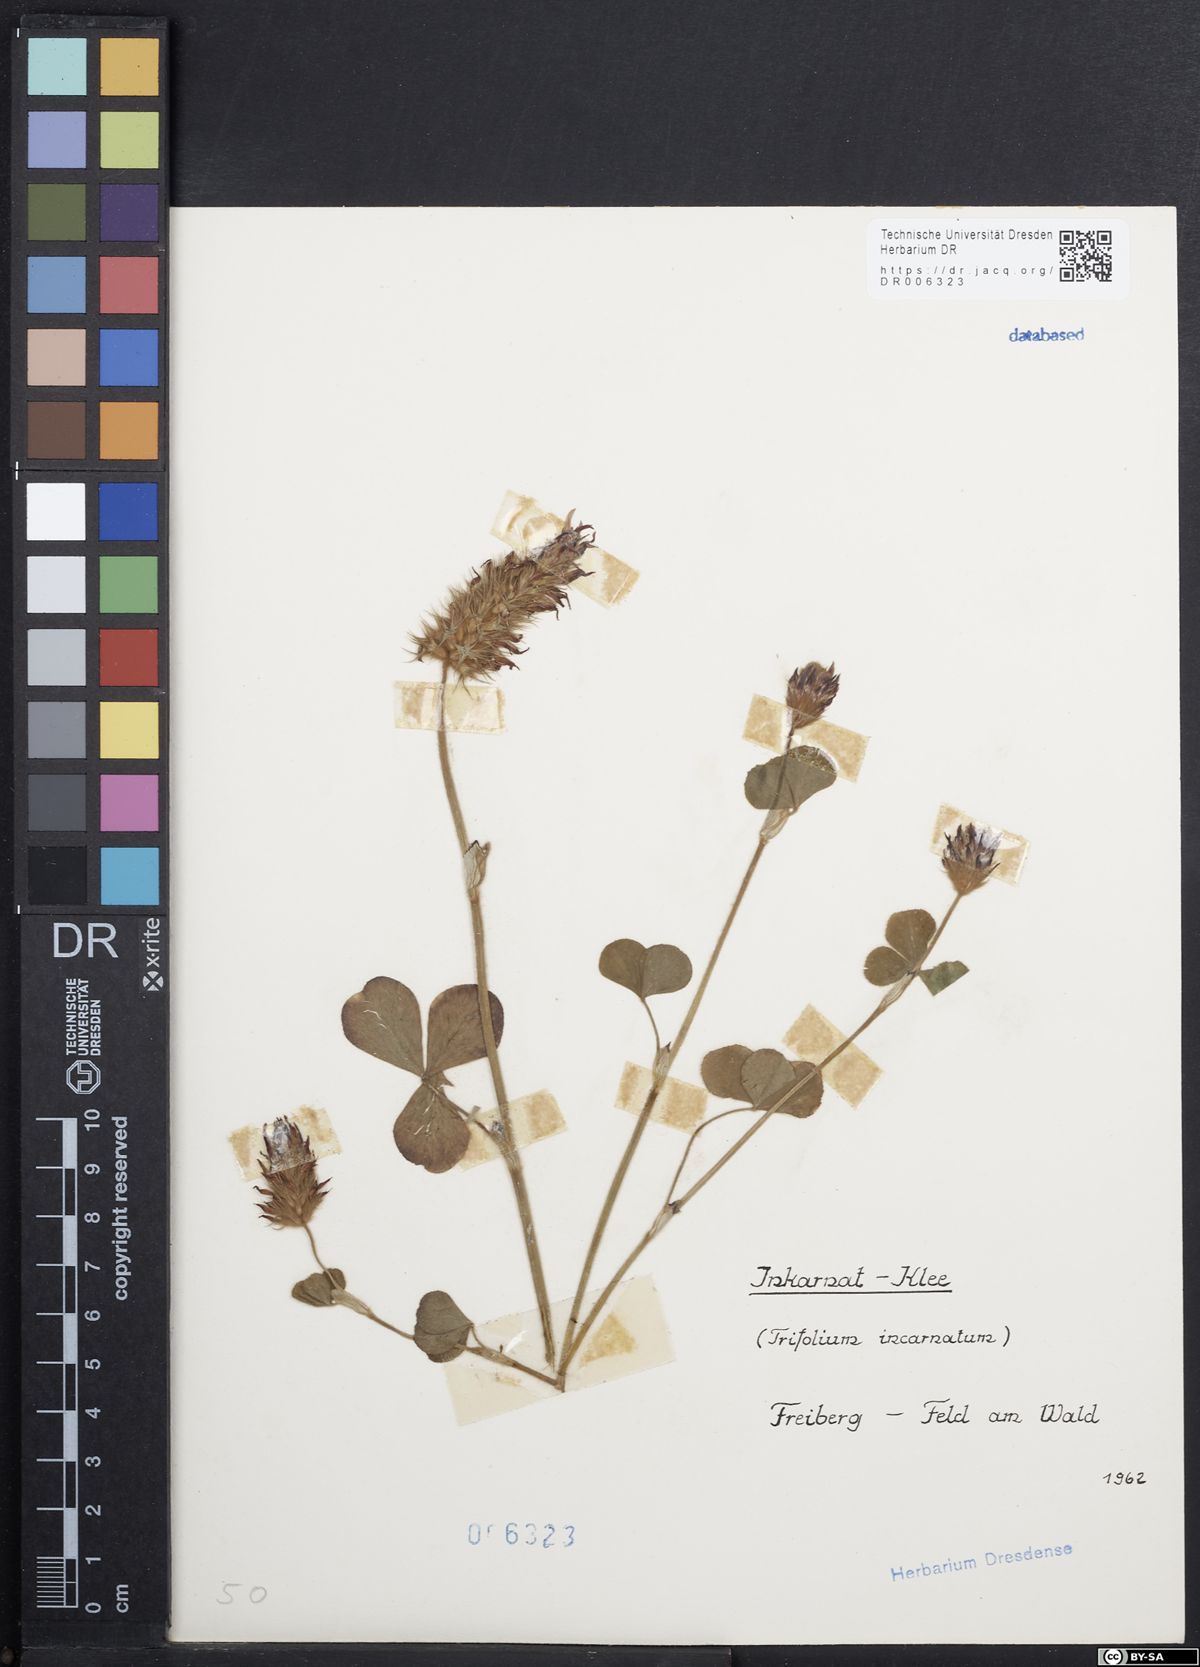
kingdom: Plantae
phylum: Tracheophyta
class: Magnoliopsida
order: Fabales
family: Fabaceae
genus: Trifolium
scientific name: Trifolium incarnatum
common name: Crimson clover
